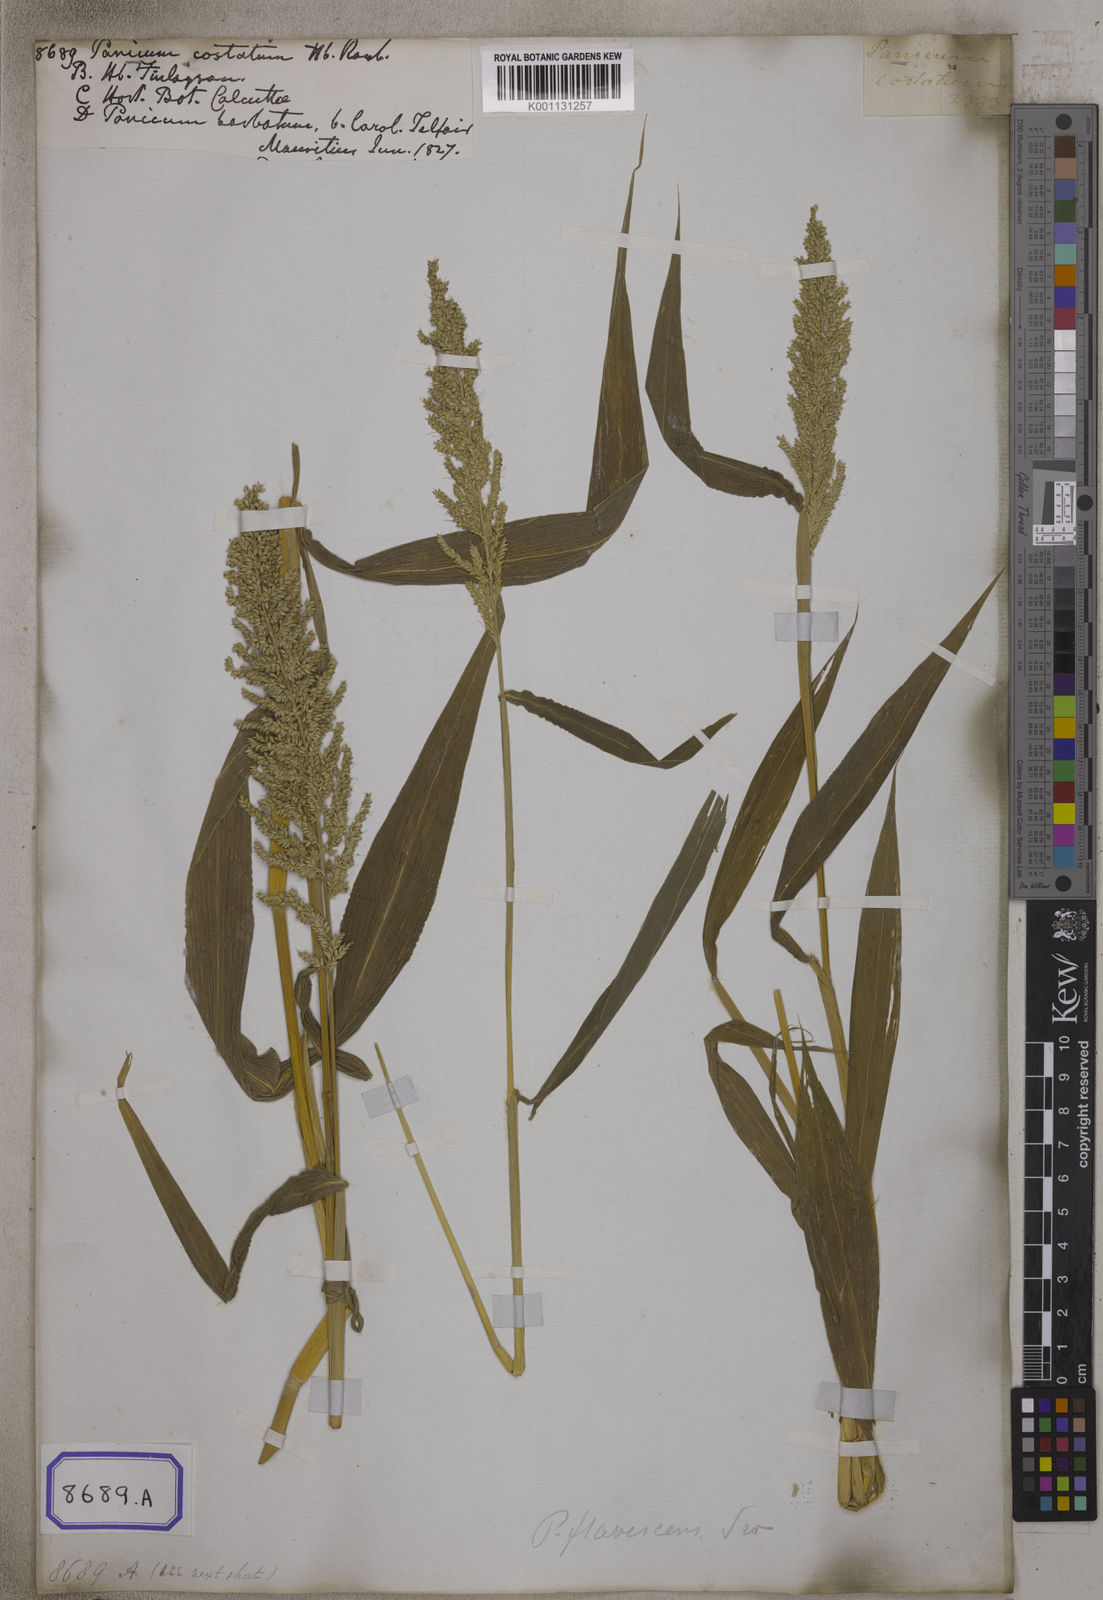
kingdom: Plantae
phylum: Tracheophyta
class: Liliopsida
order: Poales
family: Poaceae
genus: Setaria
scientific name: Setaria barbata
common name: East indian bristlegrass
